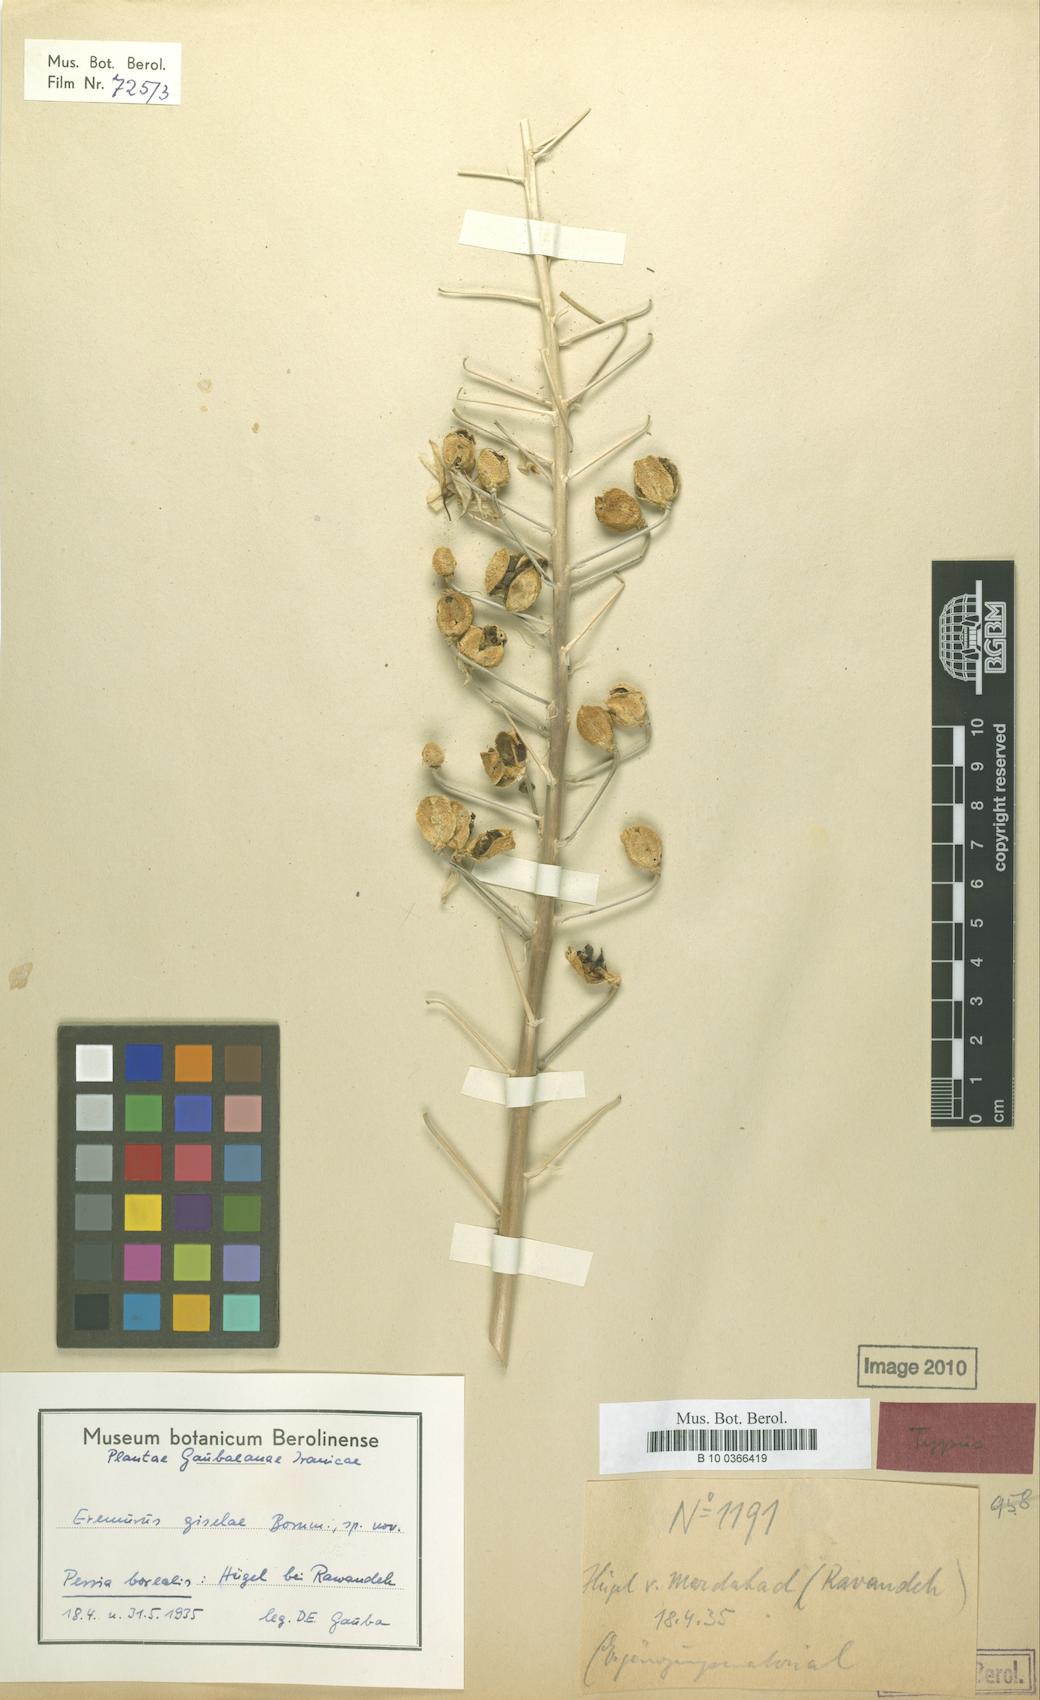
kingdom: Plantae
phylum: Tracheophyta
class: Liliopsida
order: Asparagales
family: Asphodelaceae
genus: Eremurus
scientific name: Eremurus kopet-daghensis
